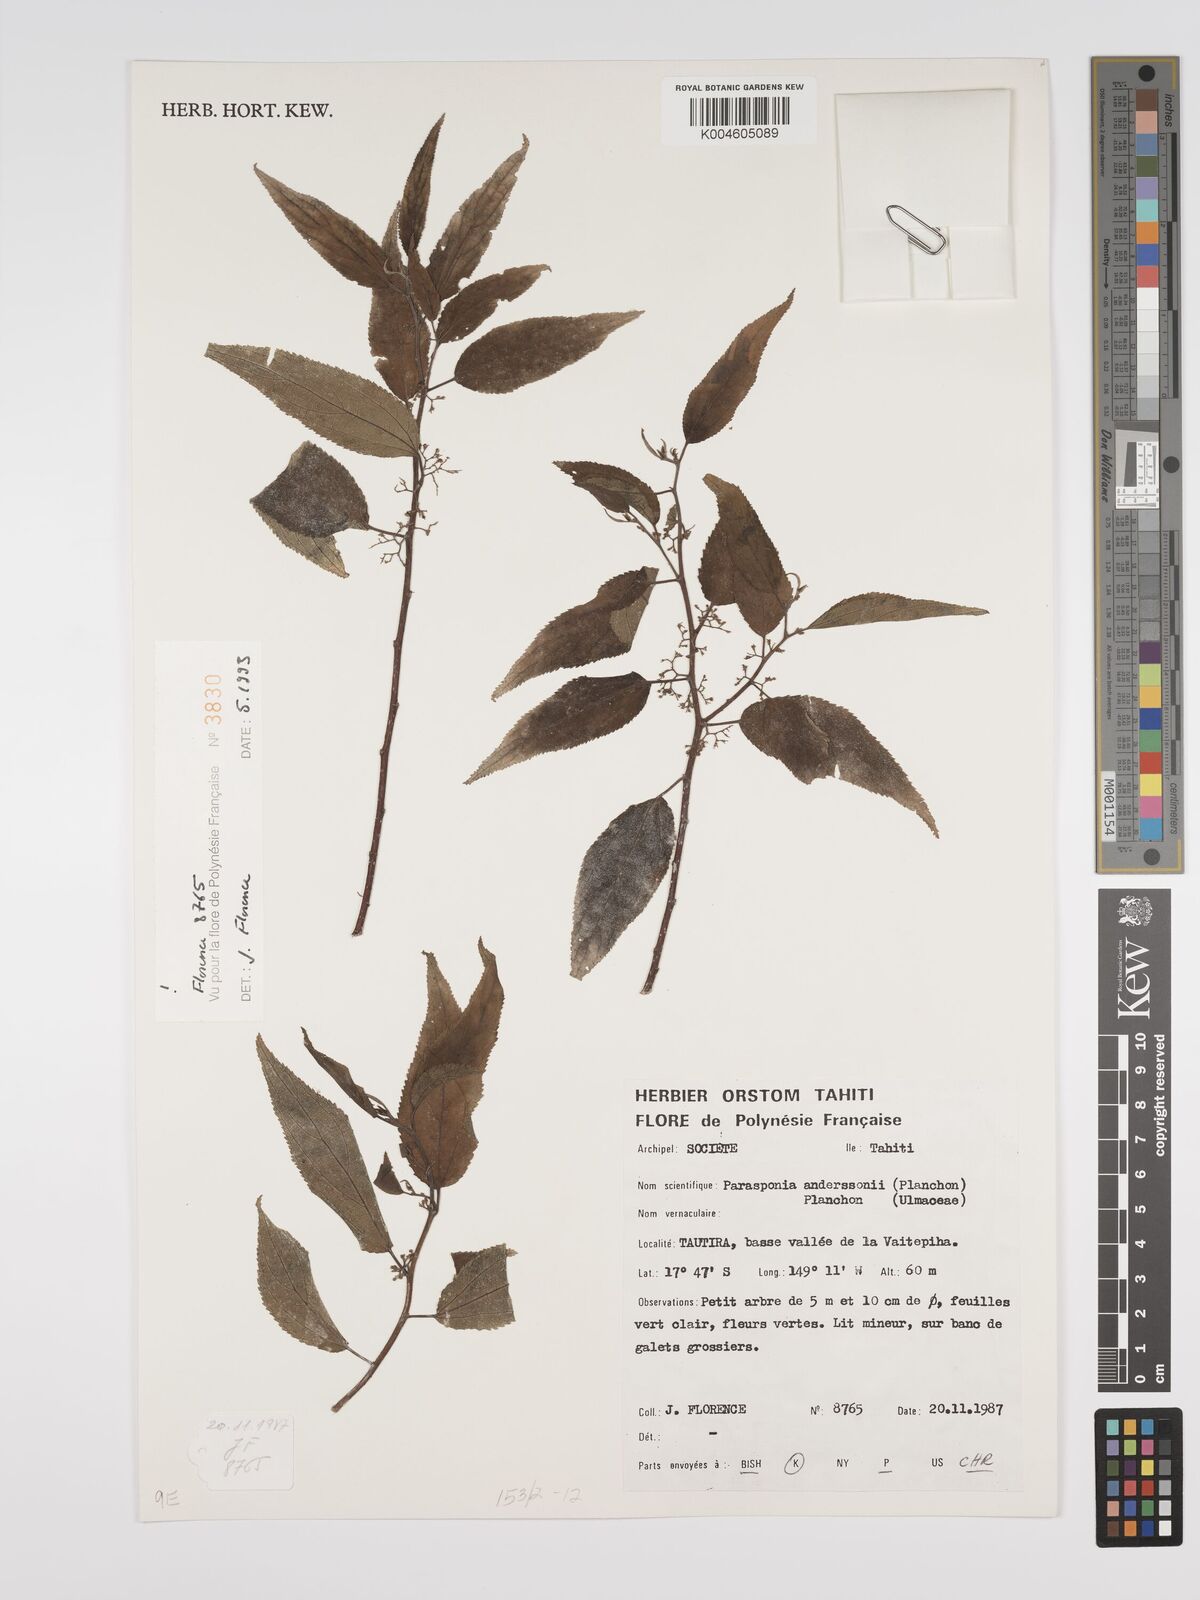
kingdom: Plantae
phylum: Tracheophyta
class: Magnoliopsida
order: Rosales
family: Cannabaceae
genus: Trema
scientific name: Trema andersonii
